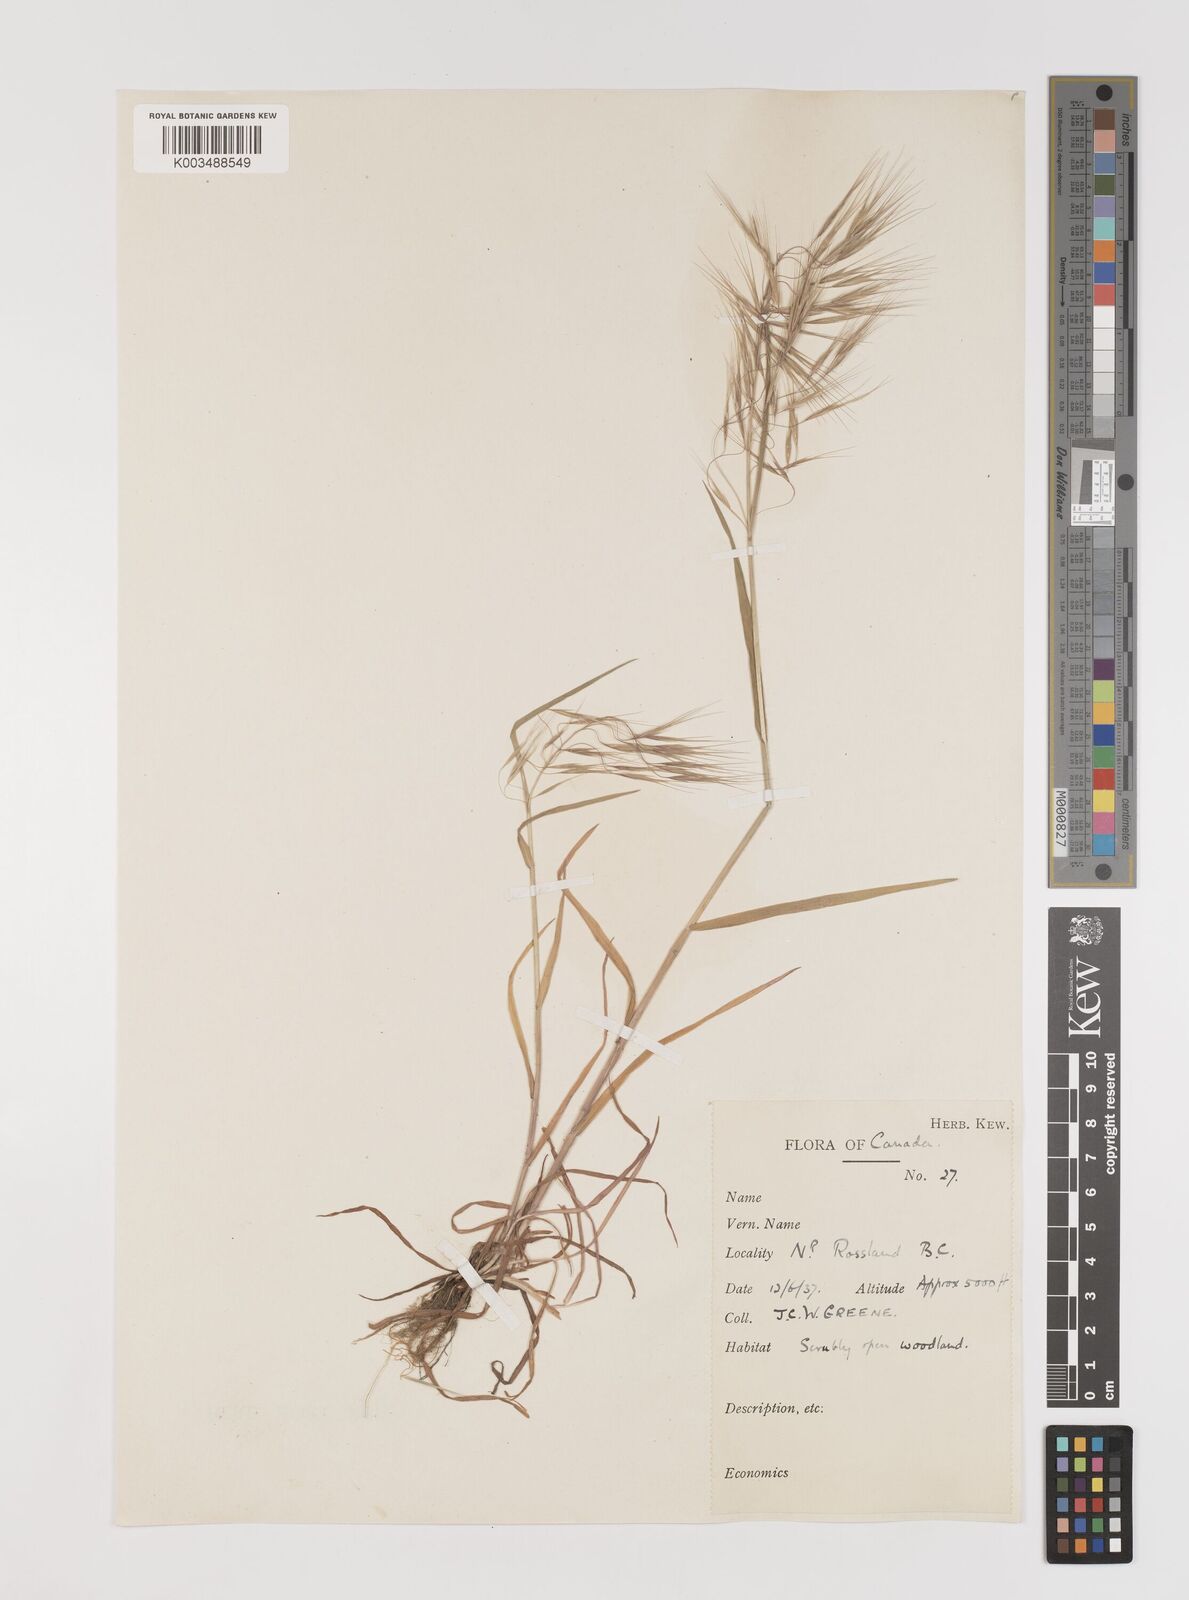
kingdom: Plantae
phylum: Tracheophyta
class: Liliopsida
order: Poales
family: Poaceae
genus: Bromus
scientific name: Bromus tectorum
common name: Cheatgrass
